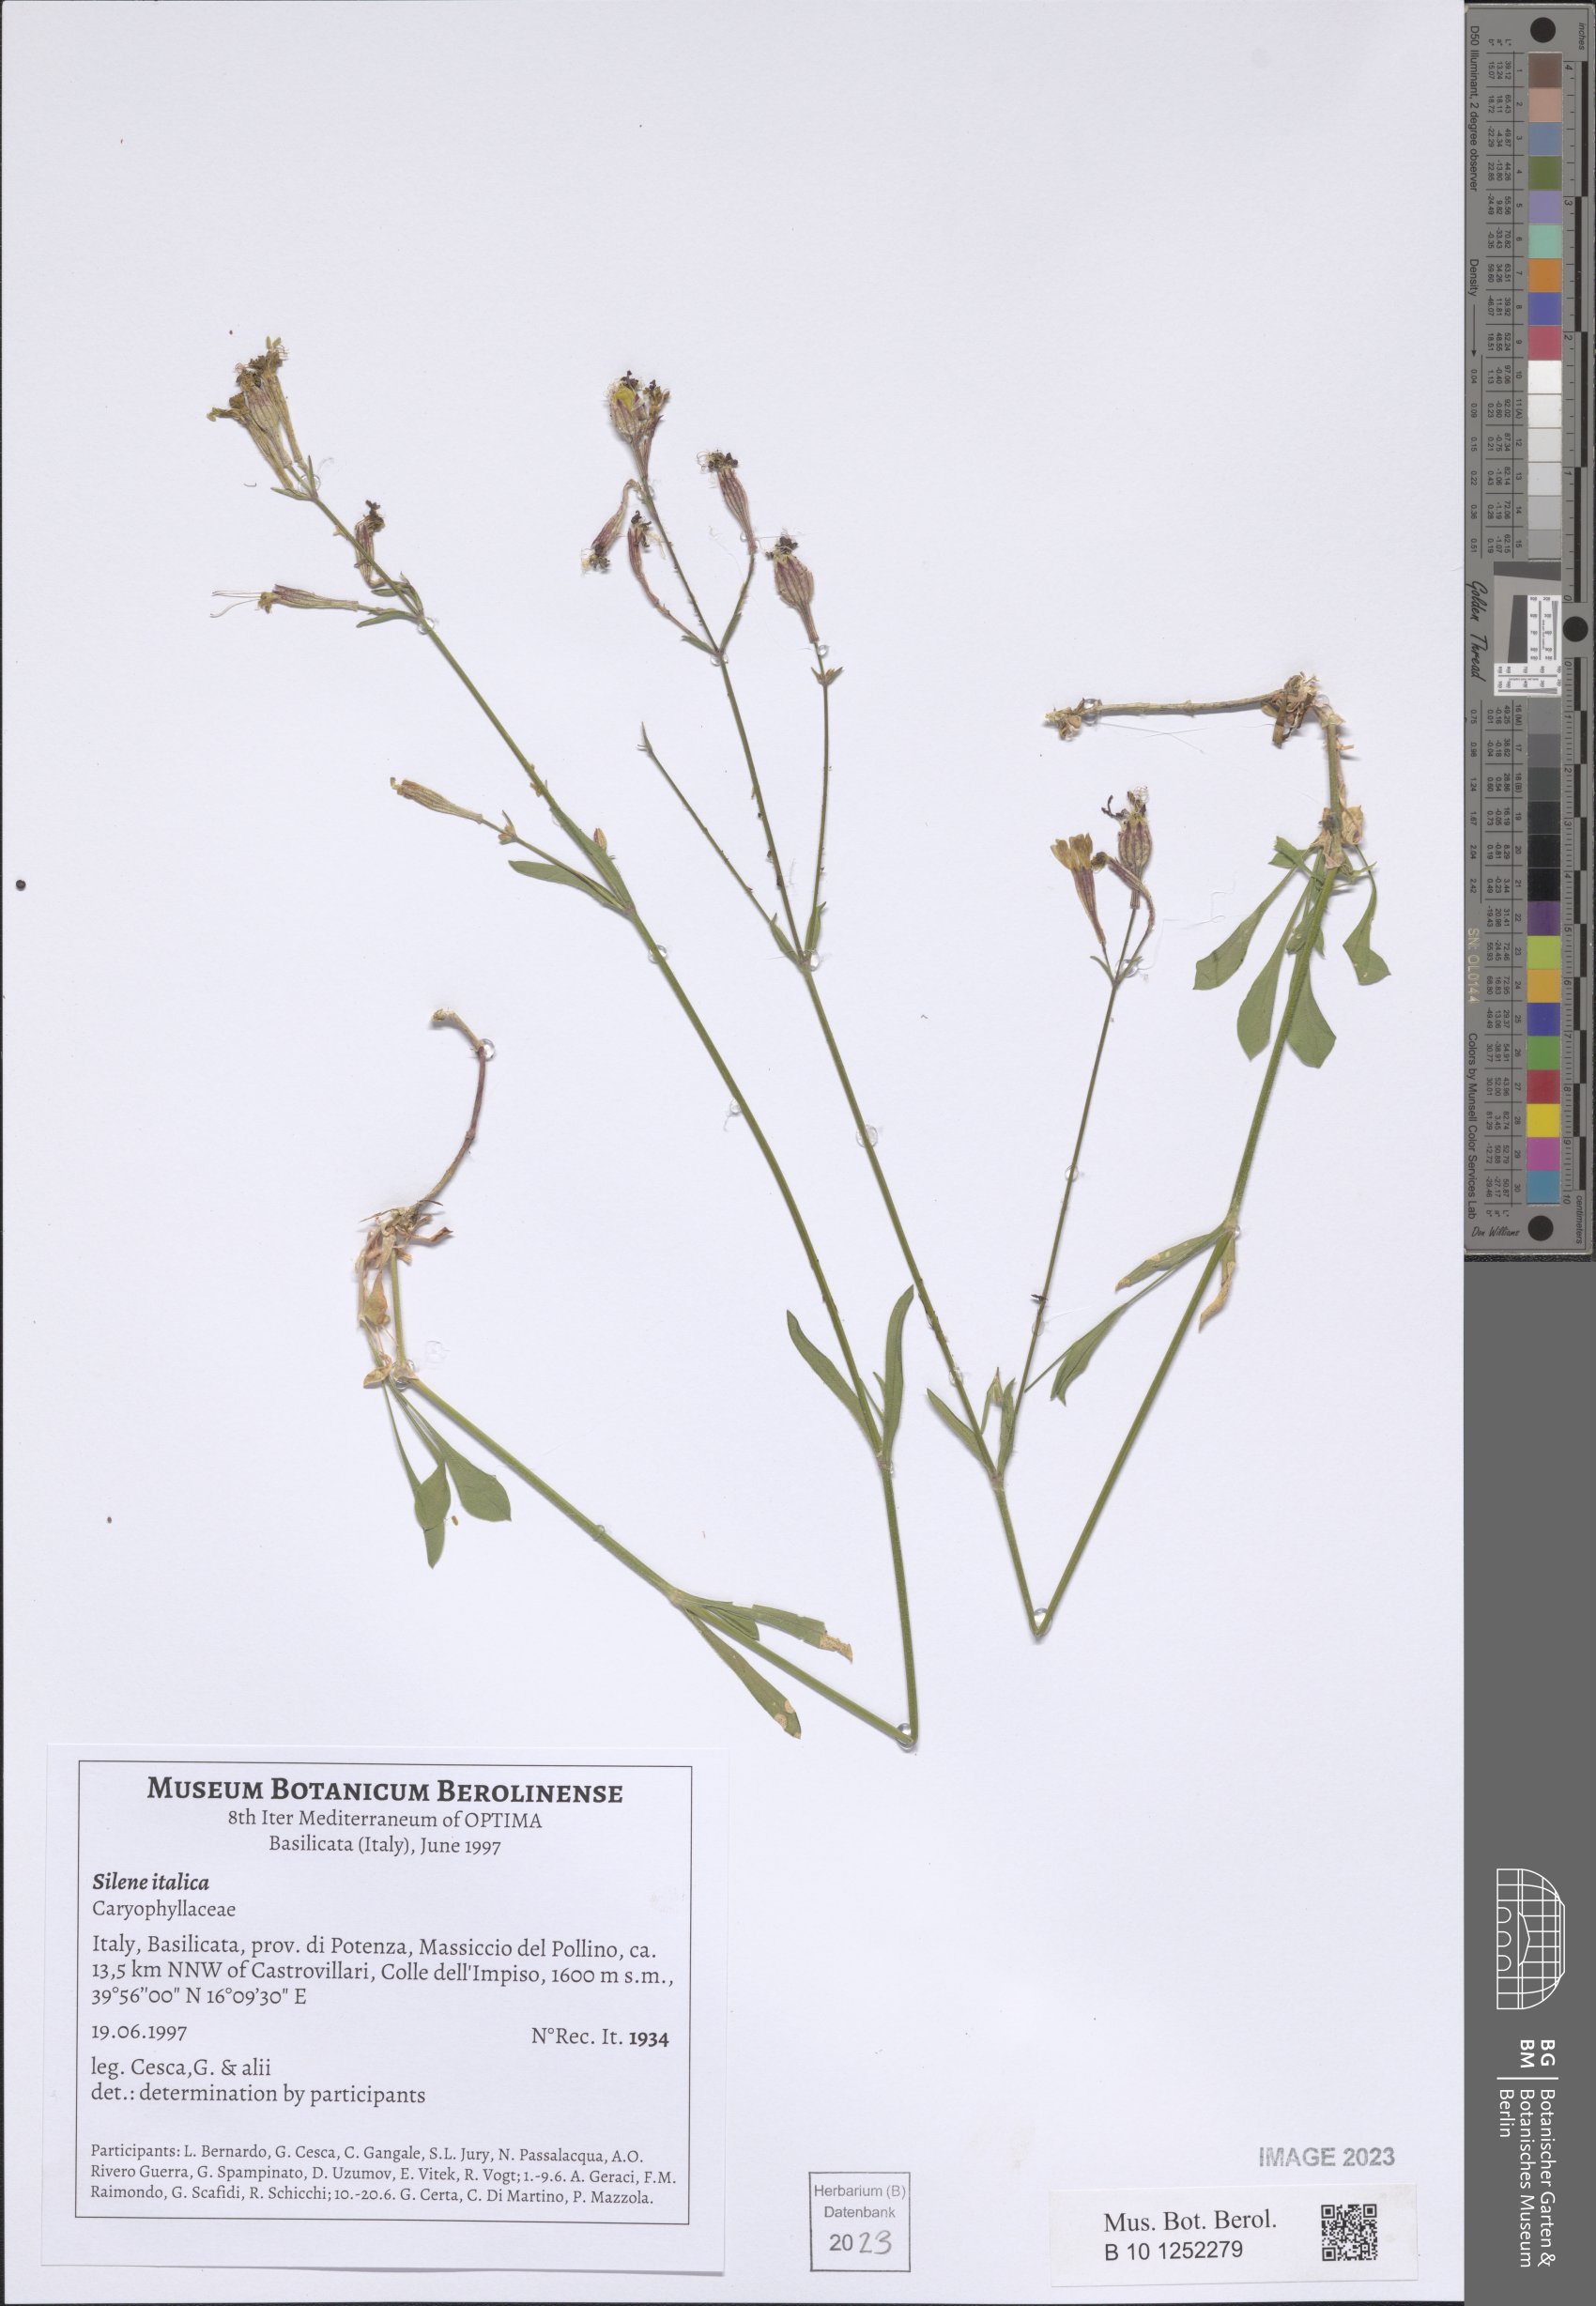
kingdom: Plantae
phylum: Tracheophyta
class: Magnoliopsida
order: Caryophyllales
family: Caryophyllaceae
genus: Silene
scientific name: Silene italica
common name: Italian catchfly
